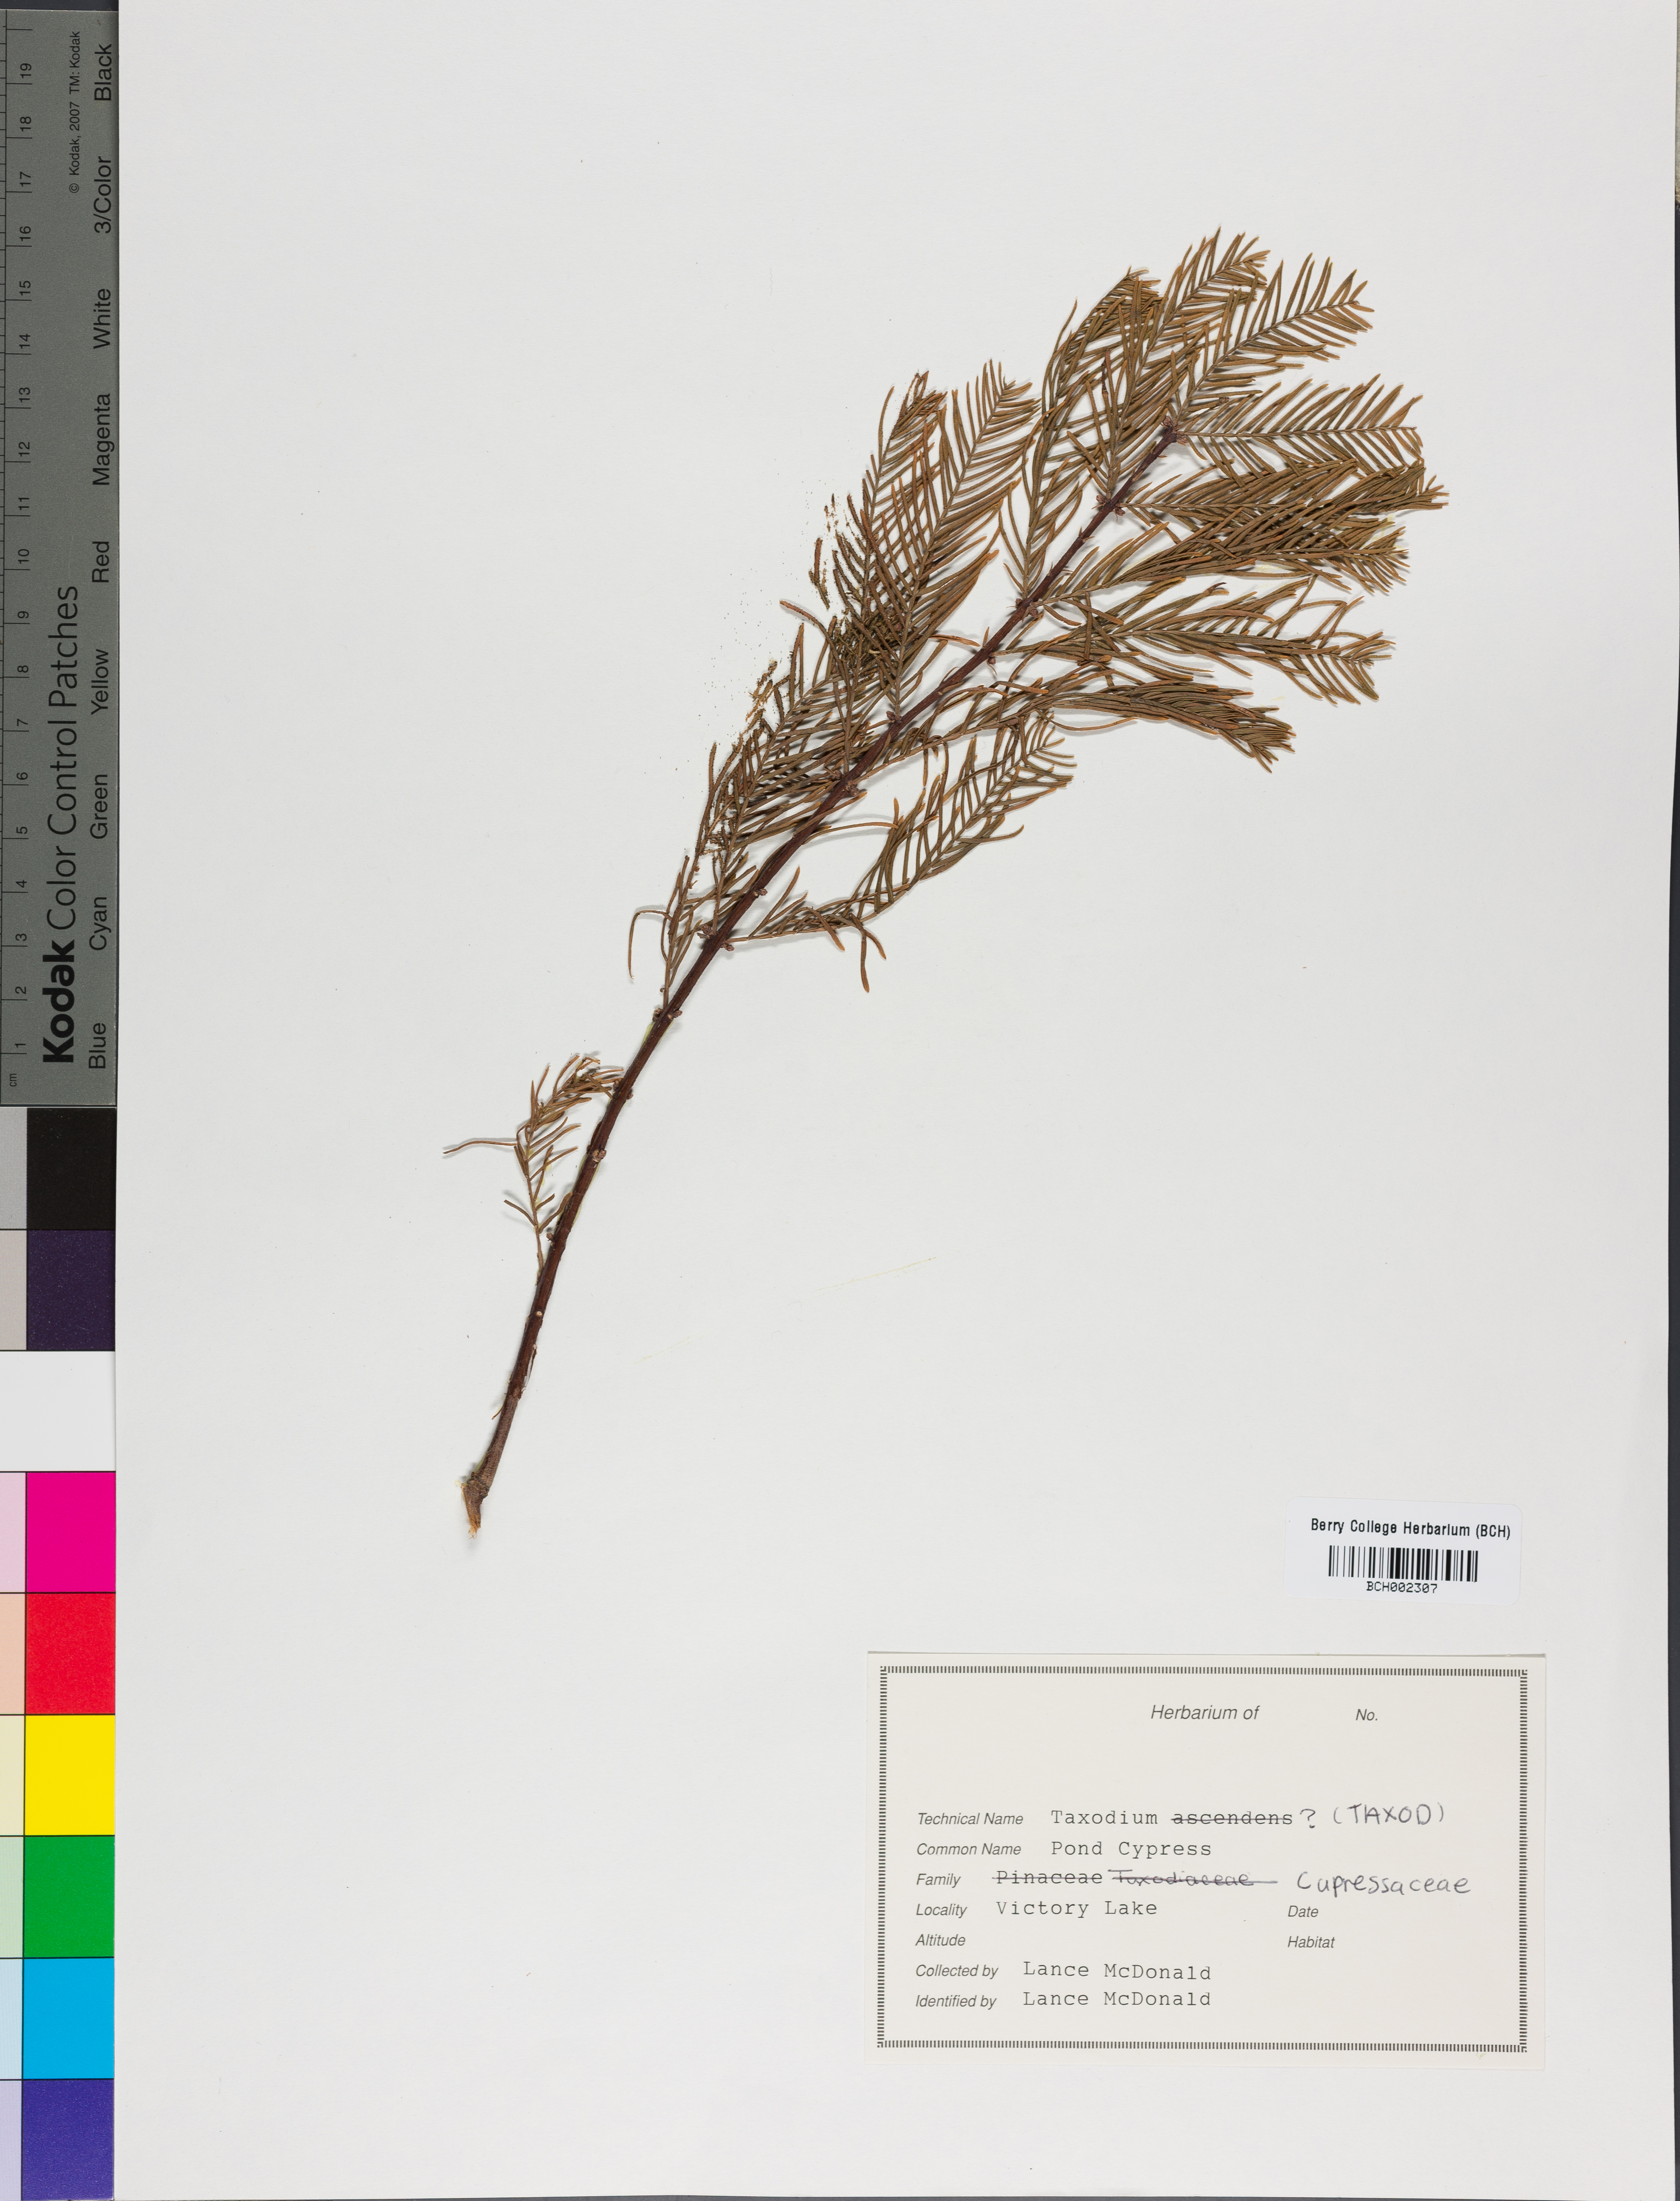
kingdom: Plantae
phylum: Tracheophyta
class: Pinopsida
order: Pinales
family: Cupressaceae
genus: Taxodium
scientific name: Taxodium
